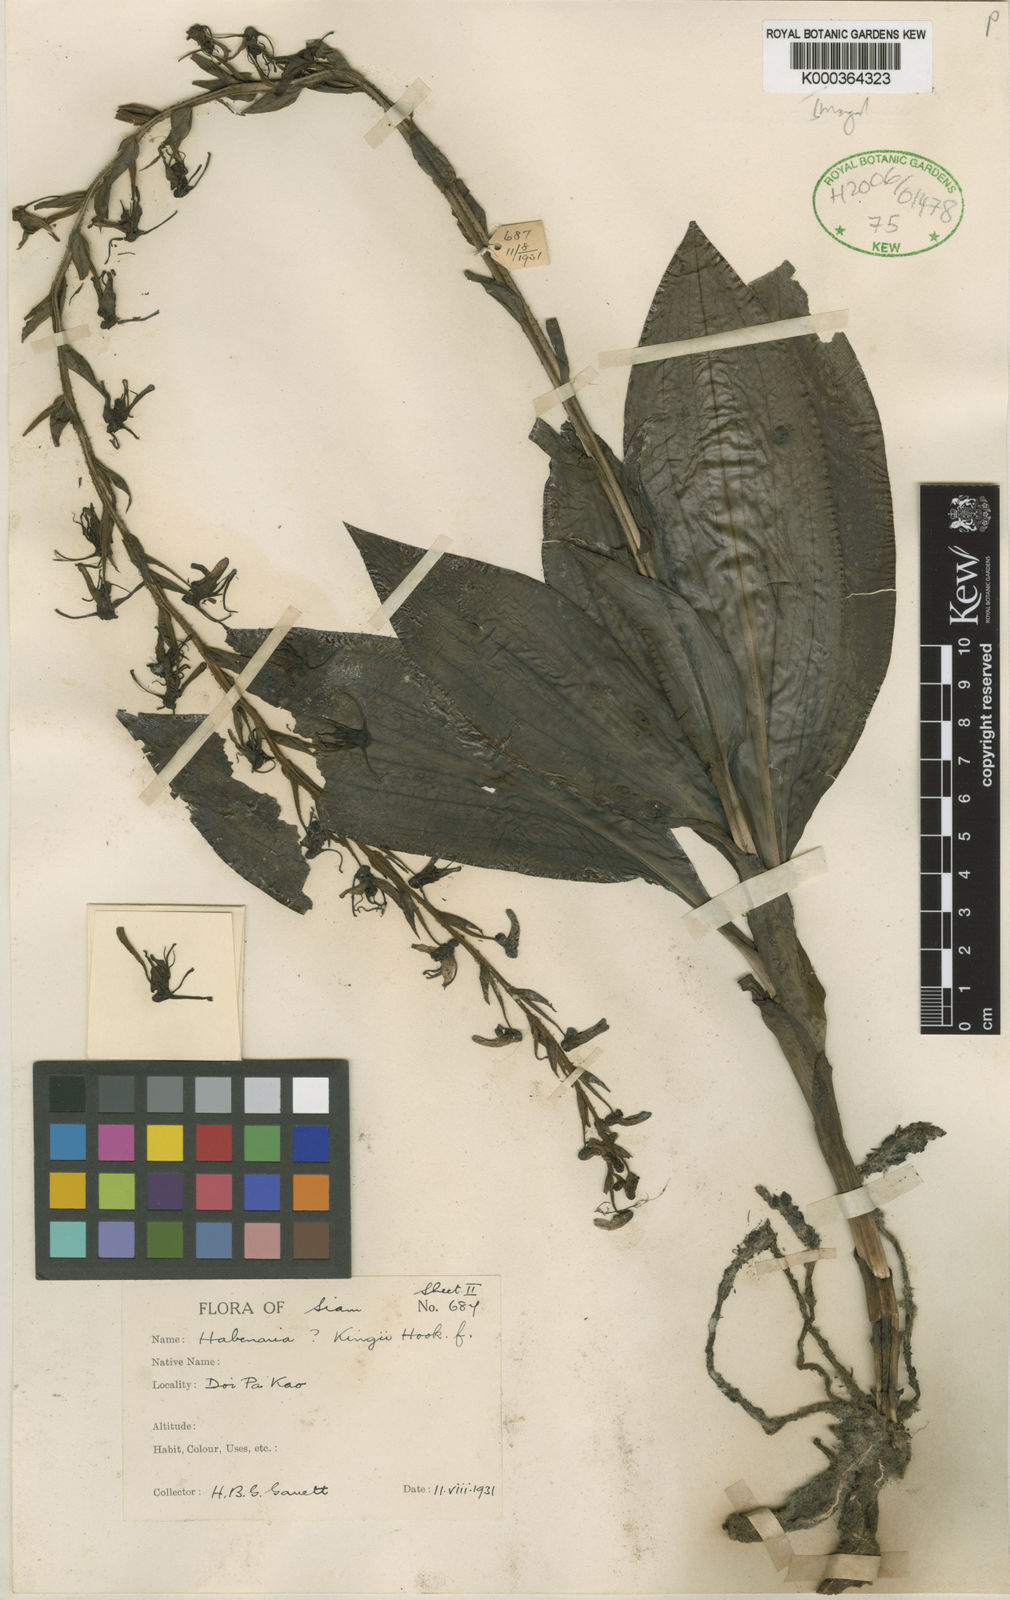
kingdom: Plantae
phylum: Tracheophyta
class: Liliopsida
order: Asparagales
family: Orchidaceae
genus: Habenaria
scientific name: Habenaria longitheca
